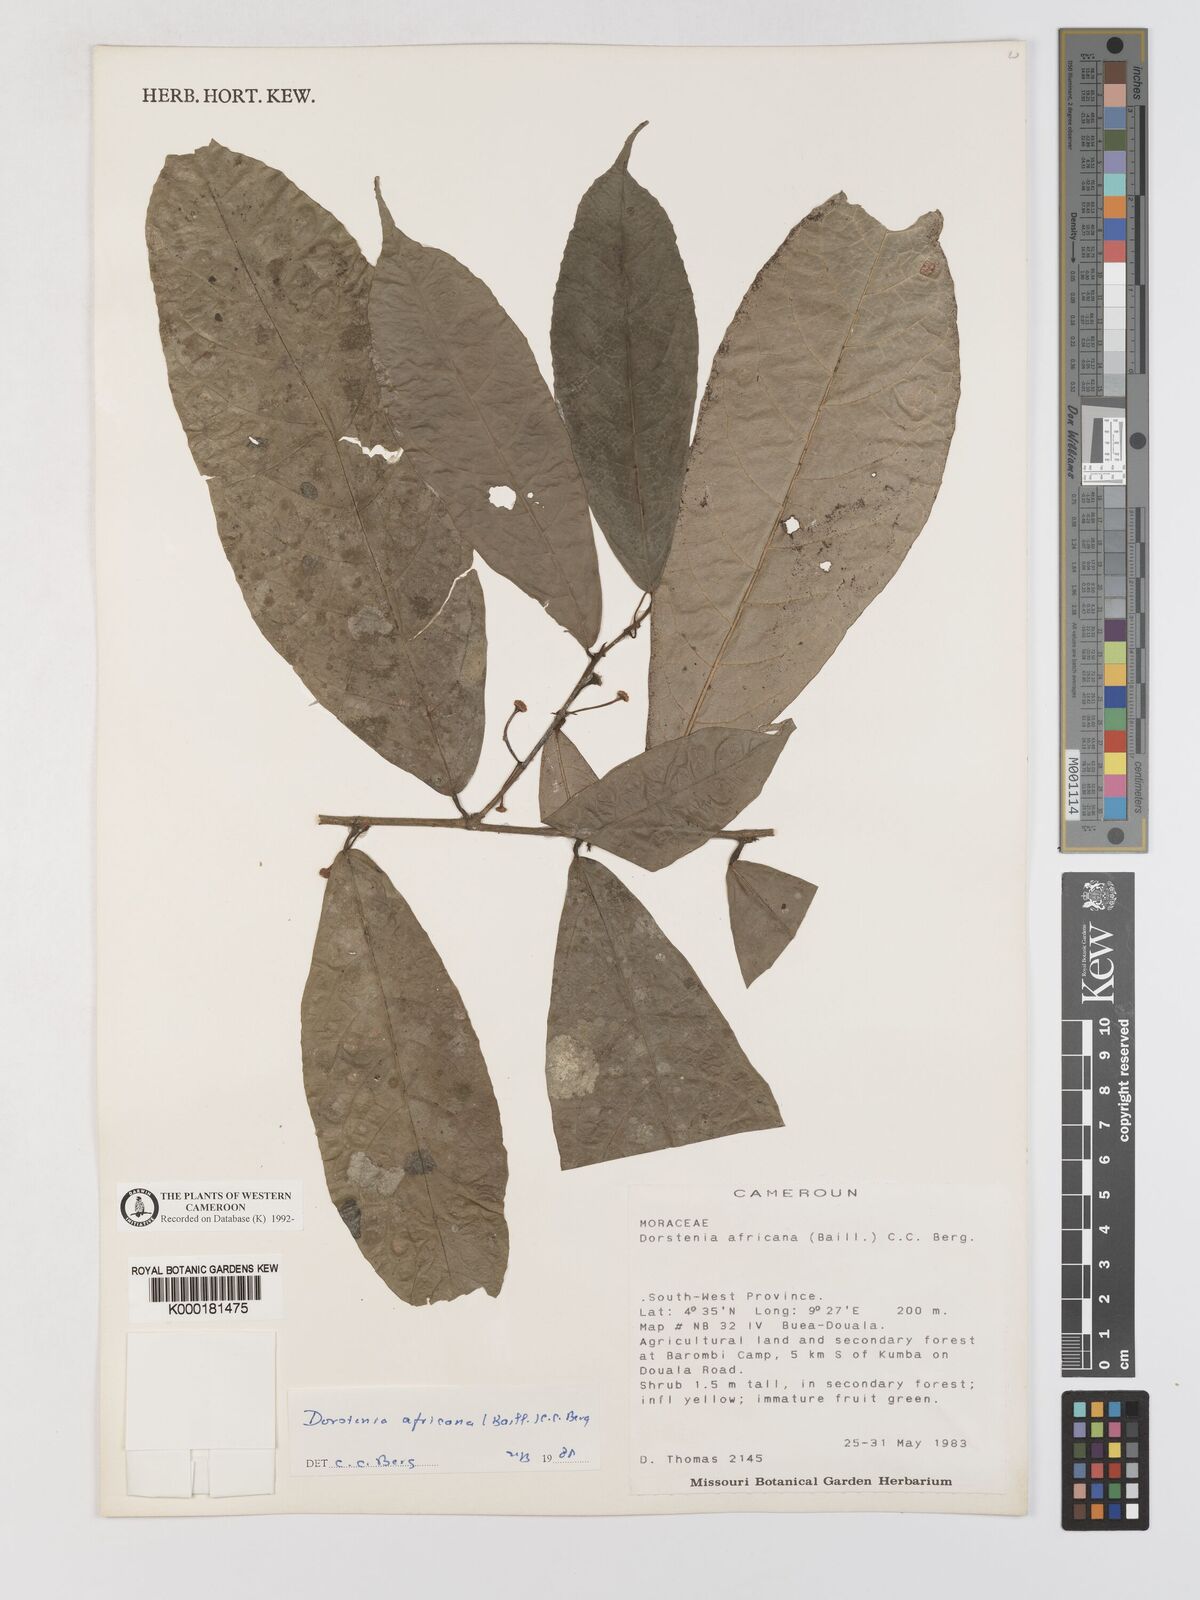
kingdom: Plantae
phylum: Tracheophyta
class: Magnoliopsida
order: Rosales
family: Moraceae
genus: Dorstenia
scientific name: Dorstenia africana
